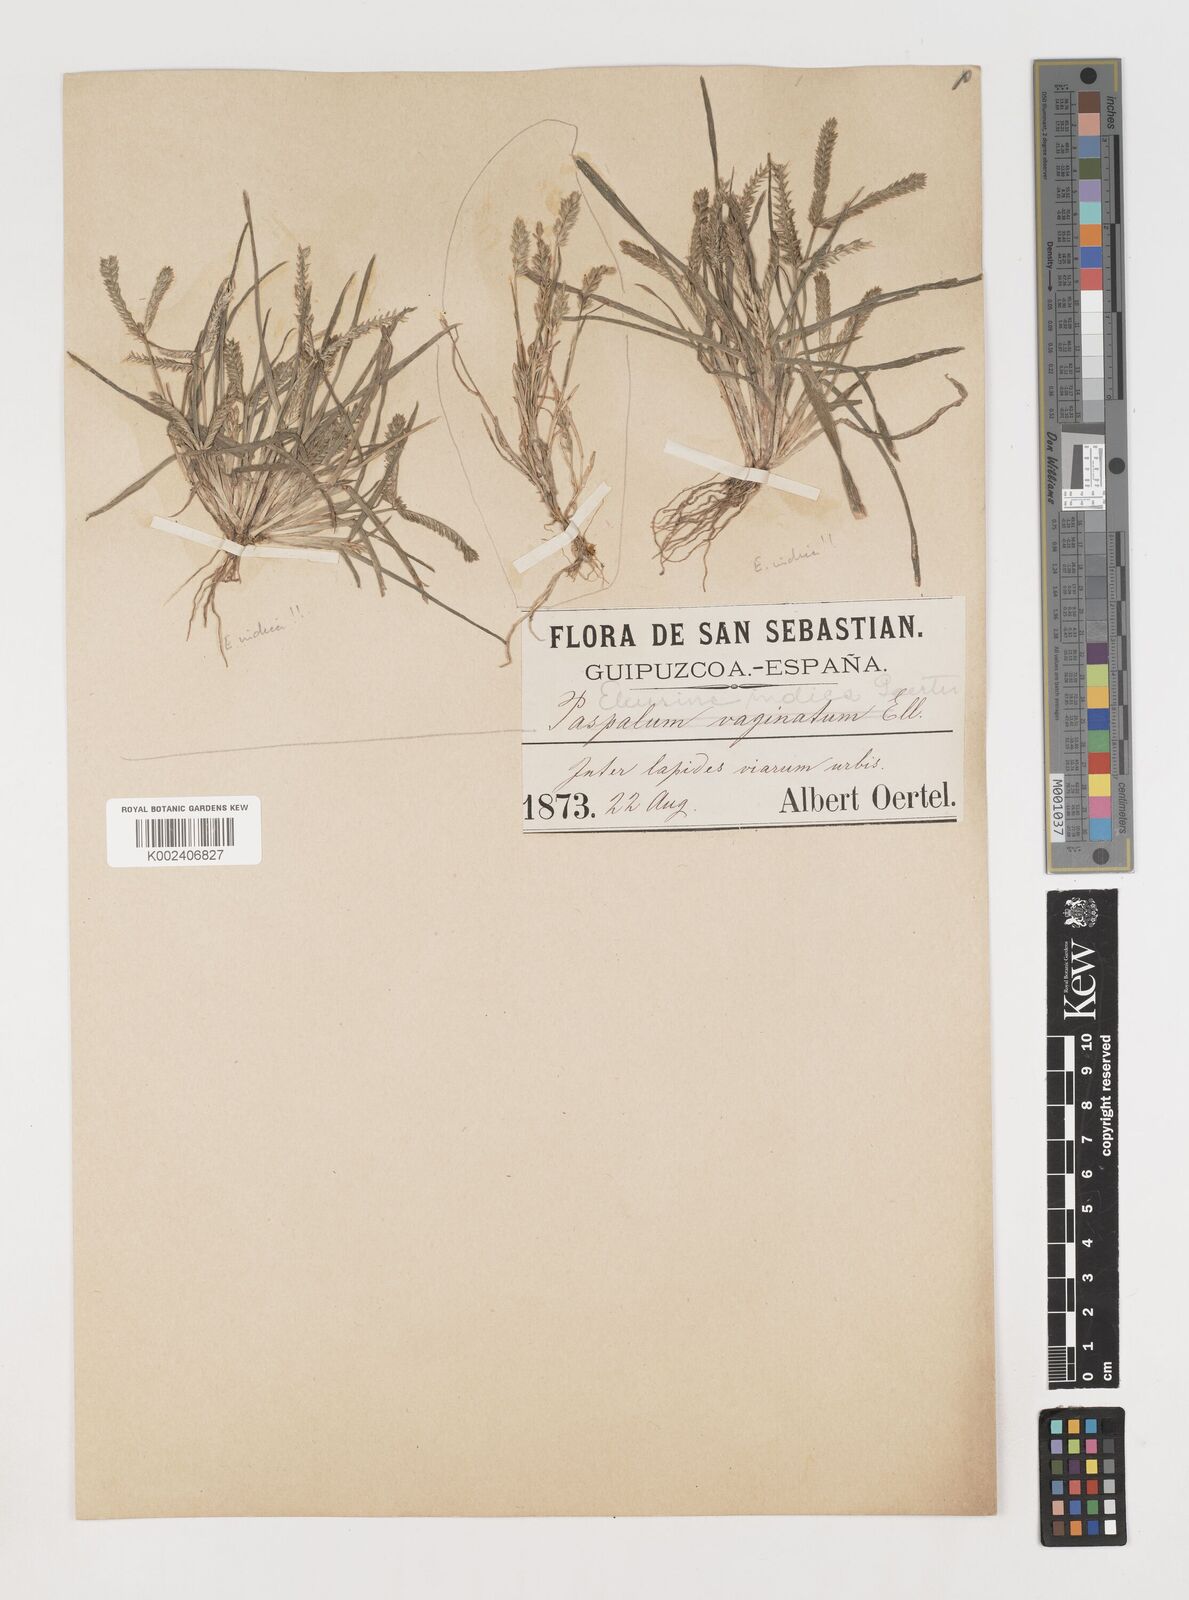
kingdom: Plantae
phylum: Tracheophyta
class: Liliopsida
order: Poales
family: Poaceae
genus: Eleusine
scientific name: Eleusine indica
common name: Yard-grass
